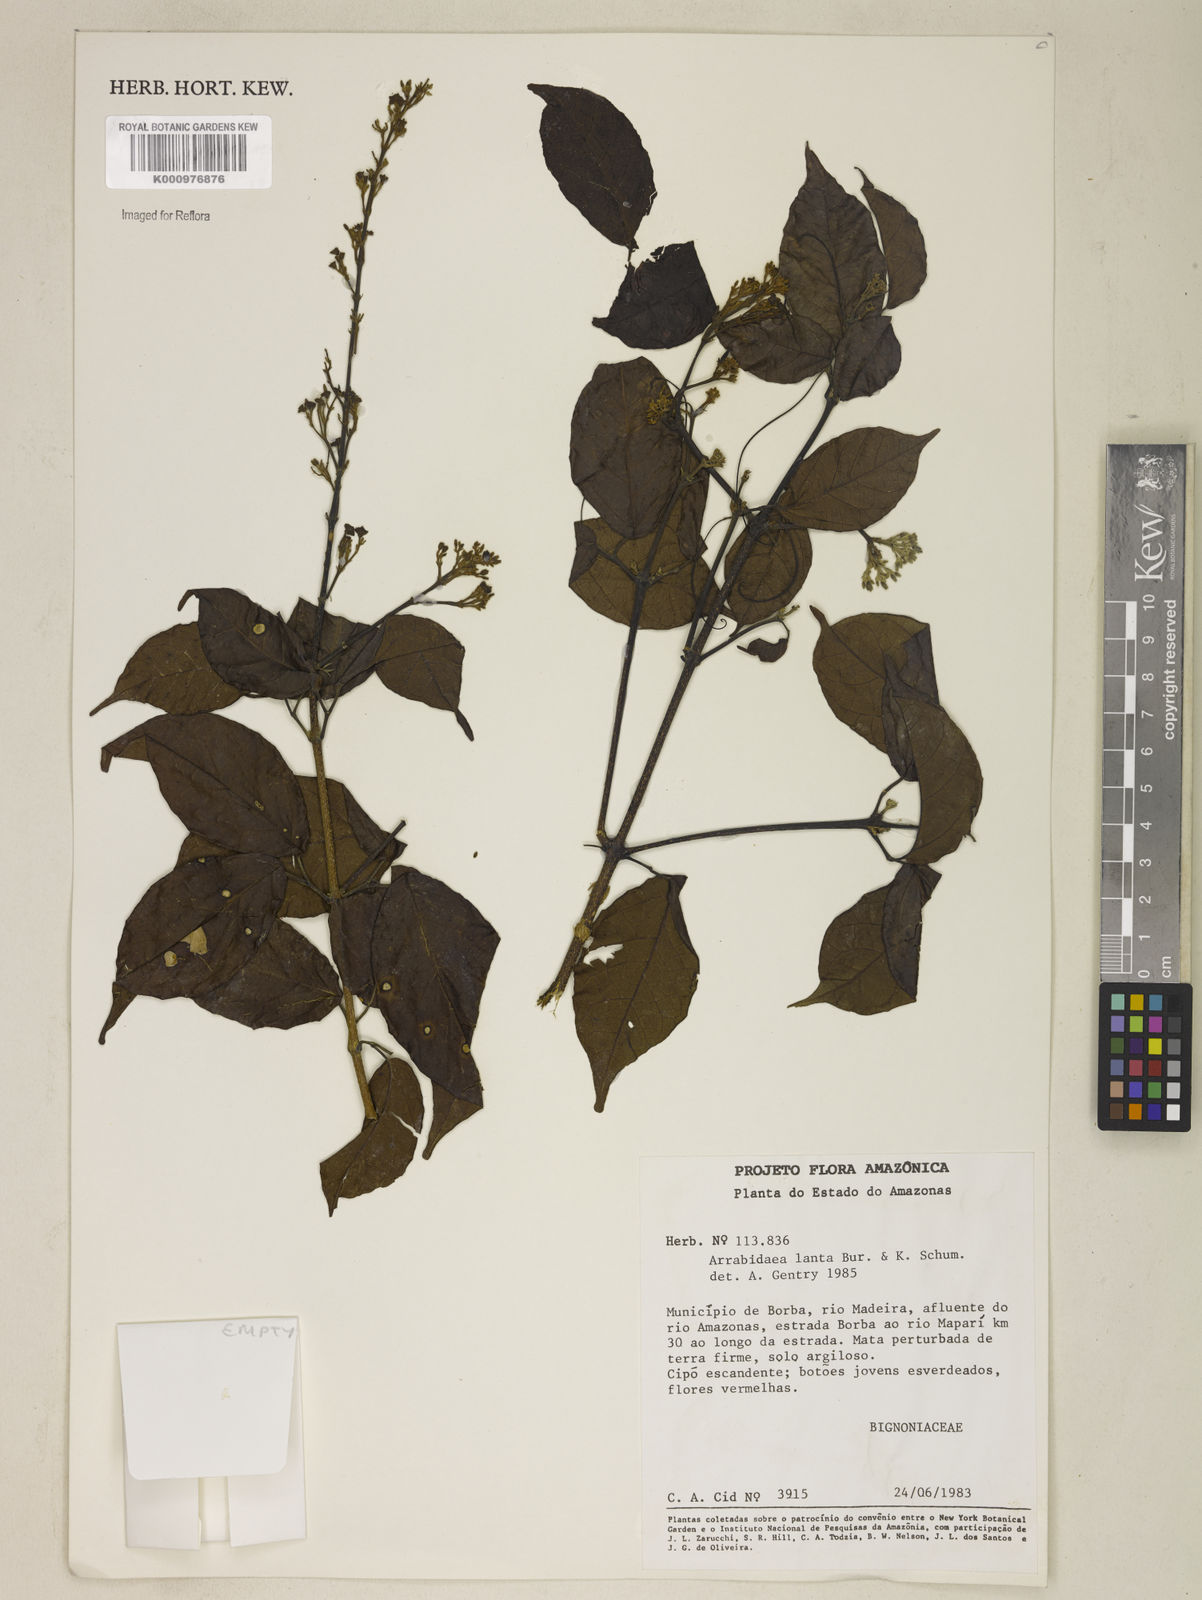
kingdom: Plantae
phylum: Tracheophyta
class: Magnoliopsida
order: Lamiales
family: Bignoniaceae
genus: Fridericia
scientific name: Fridericia lauta
